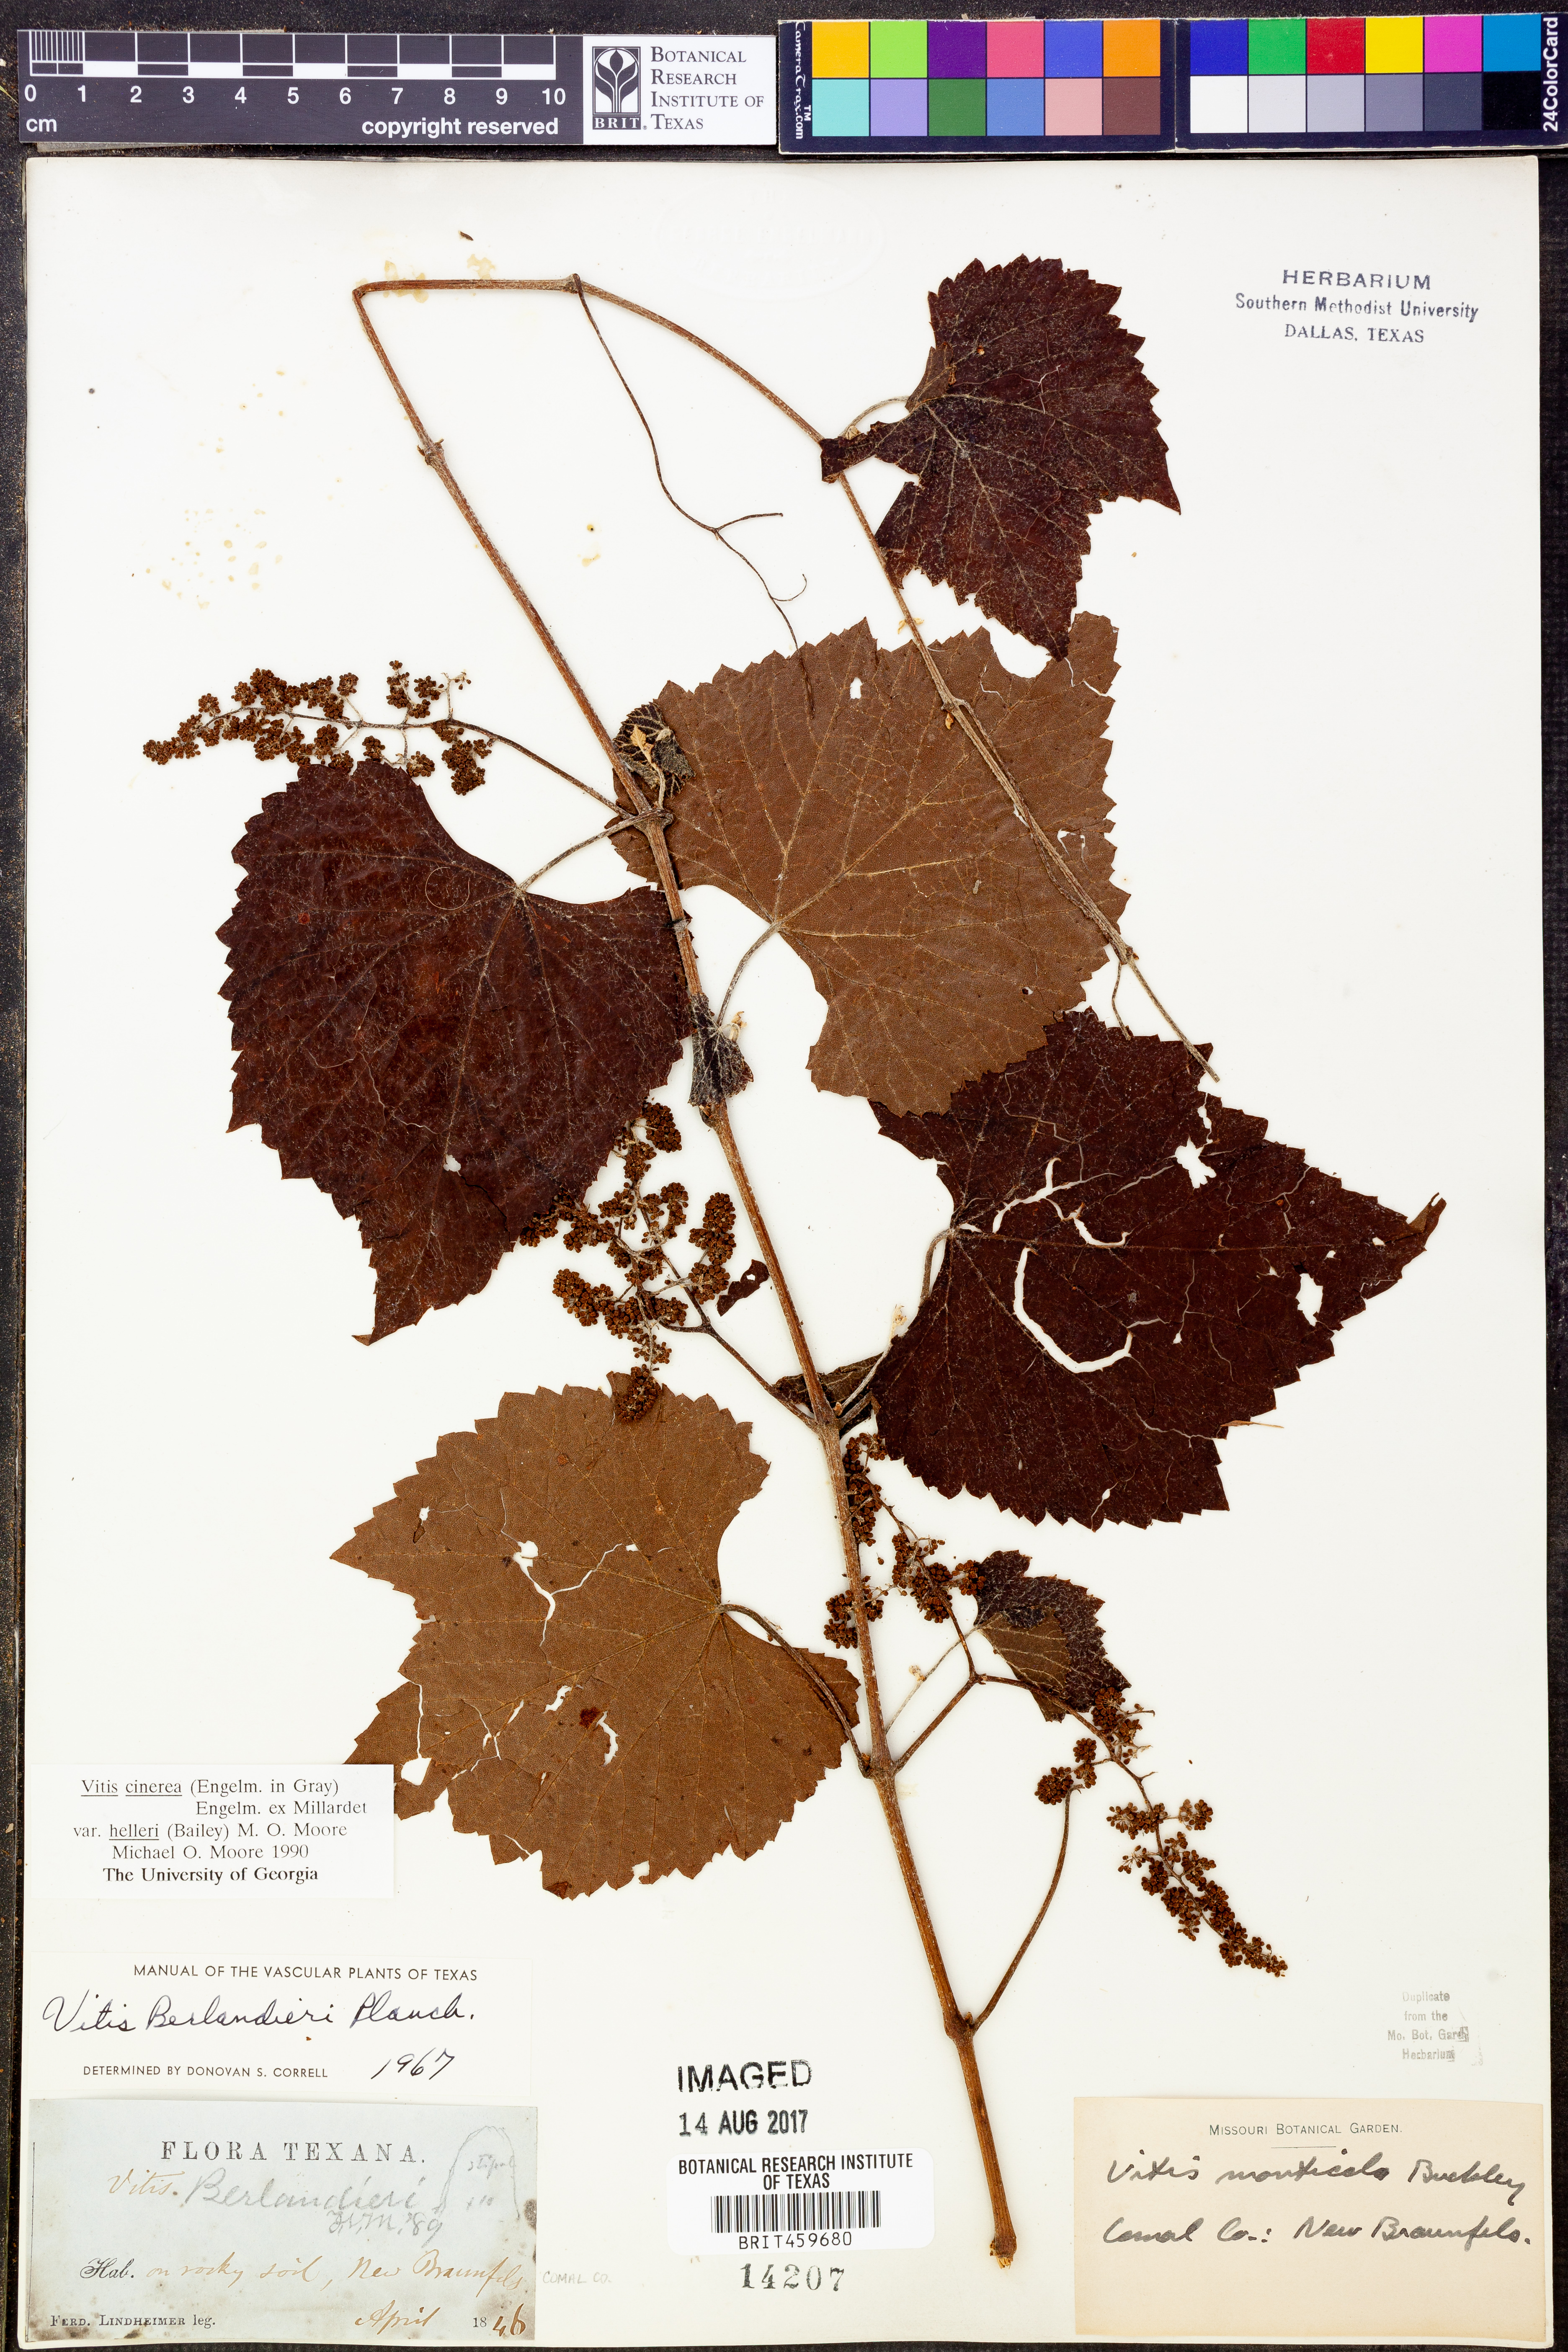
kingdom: Plantae
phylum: Tracheophyta
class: Magnoliopsida
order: Vitales
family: Vitaceae
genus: Vitis
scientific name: Vitis cinerea
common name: Ashy grape
